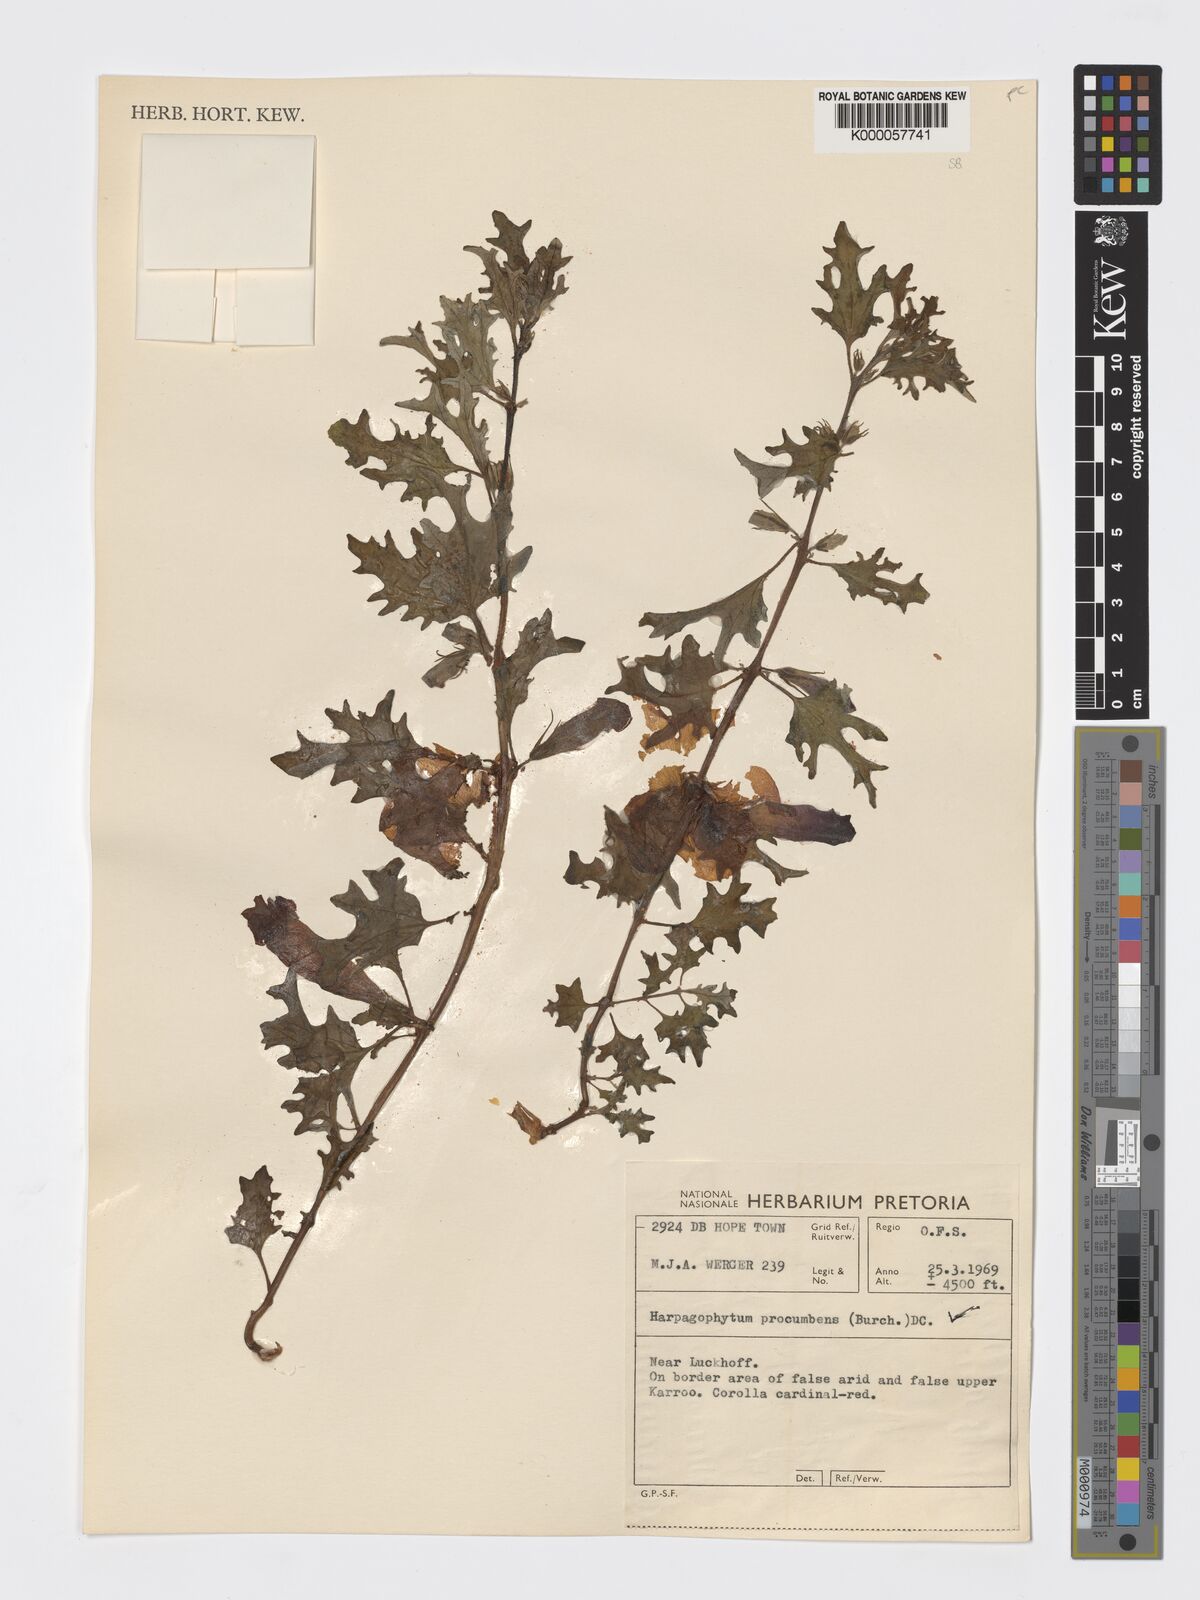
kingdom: Plantae
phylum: Tracheophyta
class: Magnoliopsida
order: Lamiales
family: Pedaliaceae
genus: Harpagophytum
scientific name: Harpagophytum procumbens
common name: Grappleplant
